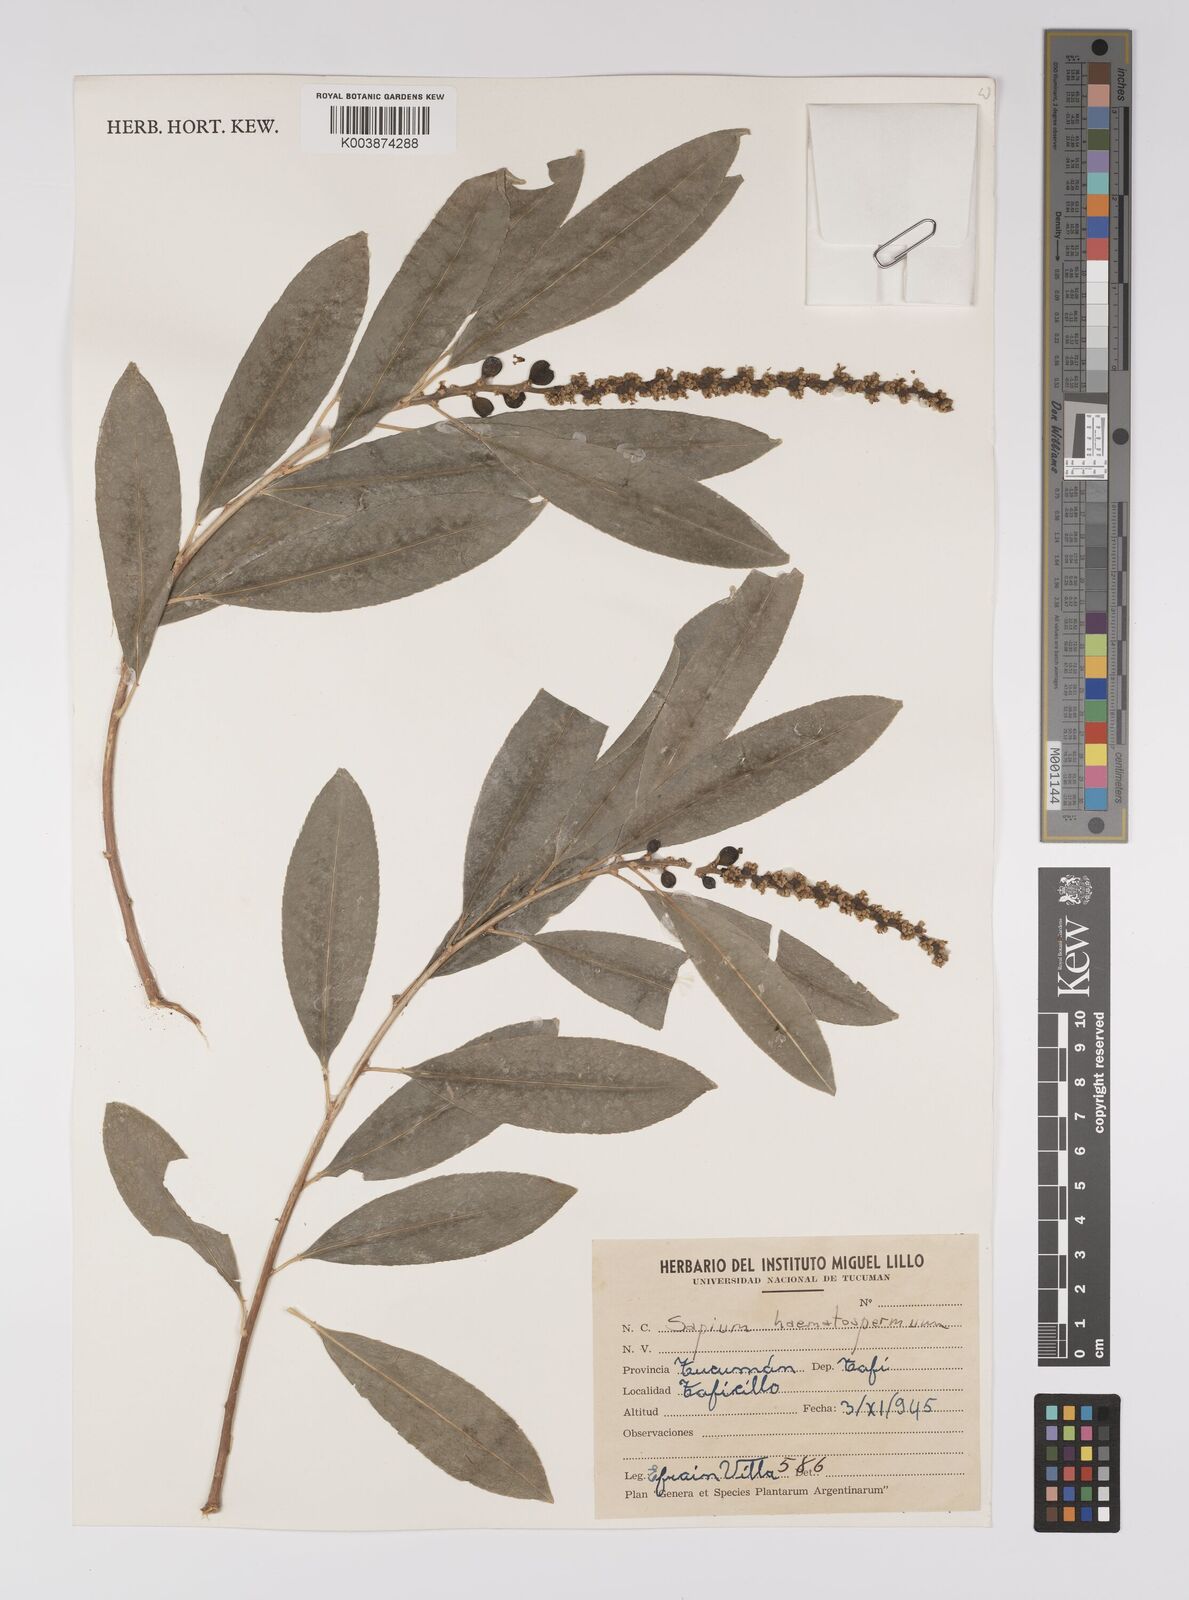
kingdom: Plantae
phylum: Tracheophyta
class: Magnoliopsida
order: Malpighiales
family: Euphorbiaceae
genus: Sapium
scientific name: Sapium haematospermum
